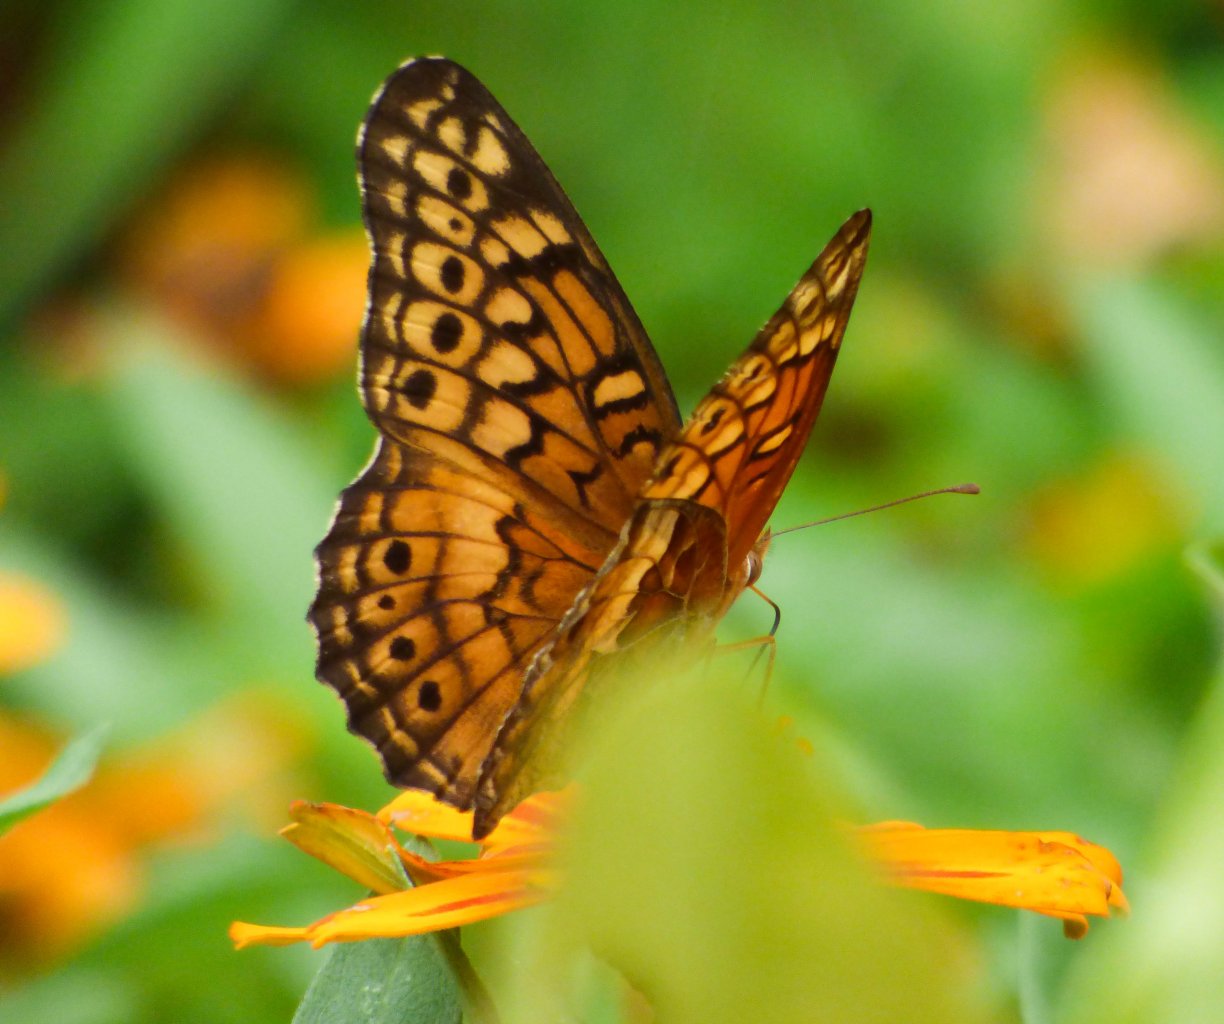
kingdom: Animalia
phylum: Arthropoda
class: Insecta
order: Lepidoptera
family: Nymphalidae
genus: Euptoieta
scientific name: Euptoieta claudia
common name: Variegated Fritillary
